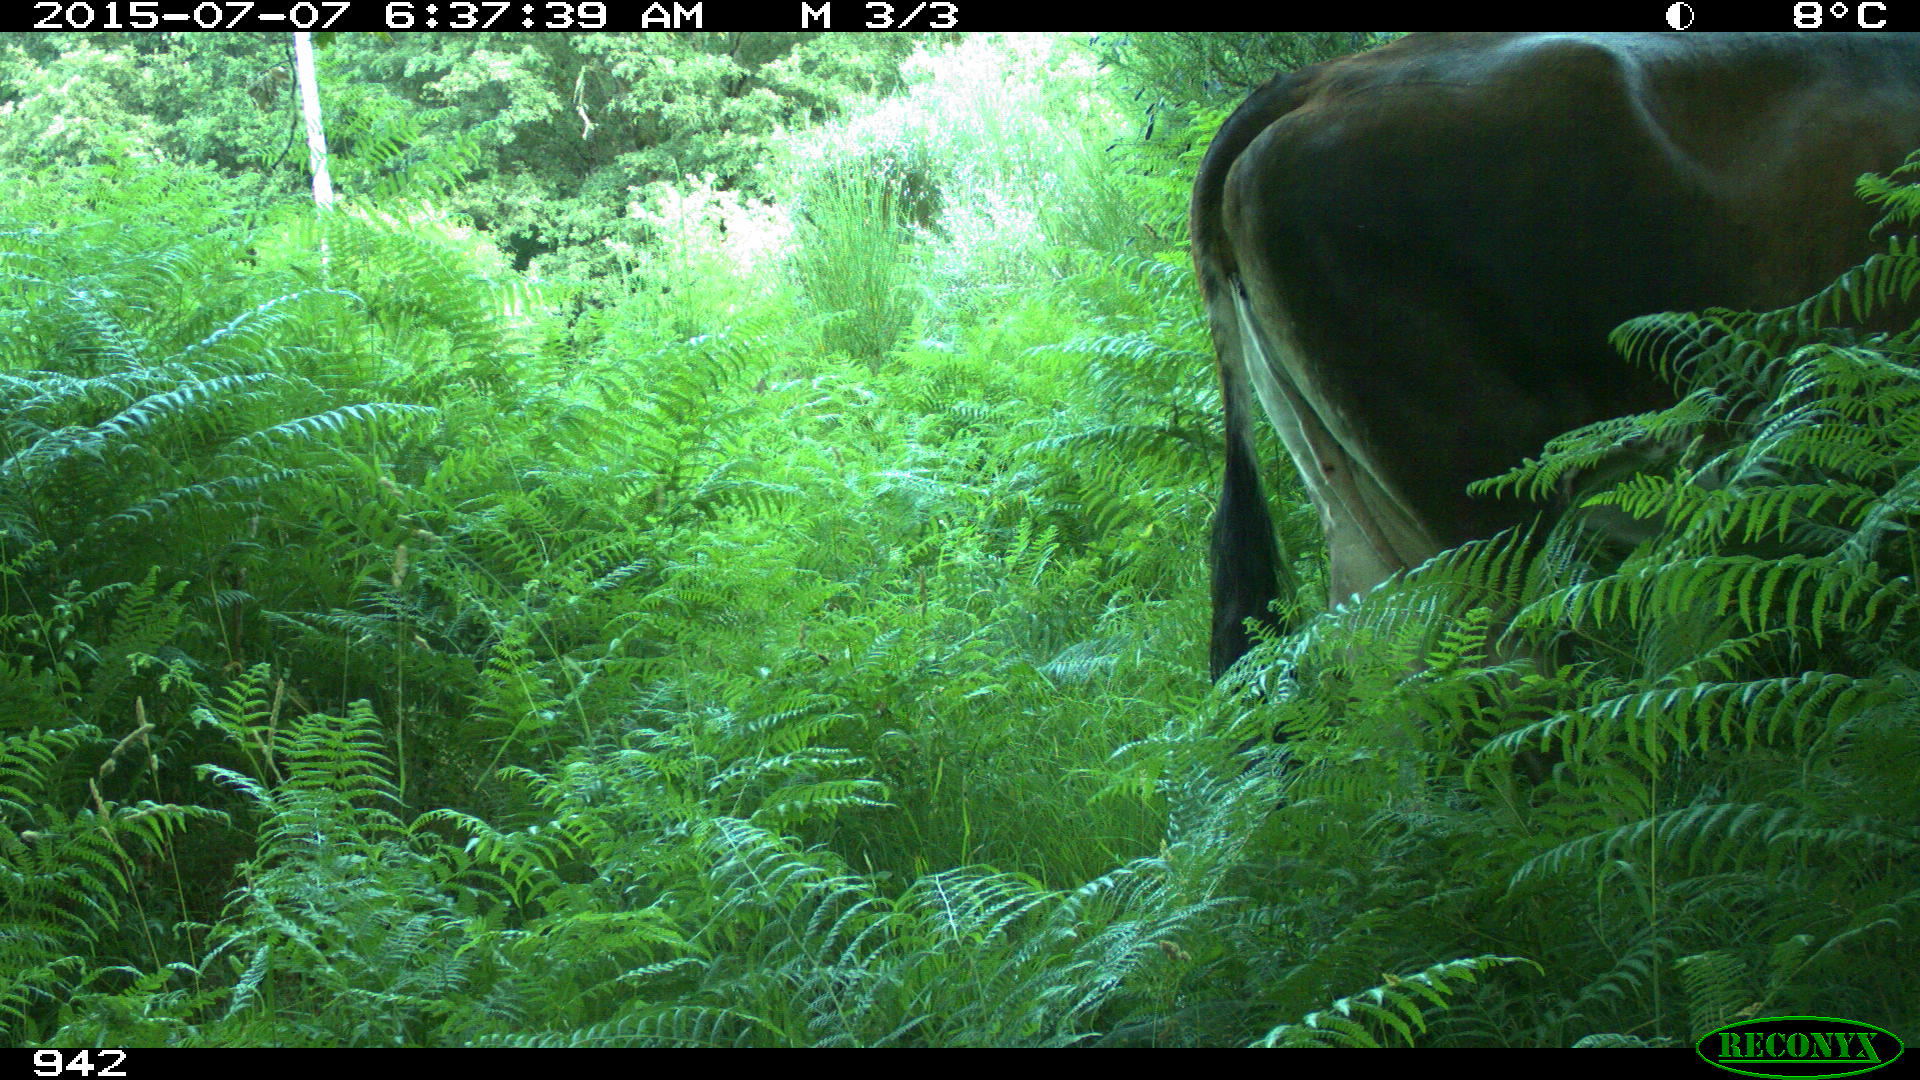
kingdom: Animalia
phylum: Chordata
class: Mammalia
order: Artiodactyla
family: Bovidae
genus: Bos
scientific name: Bos taurus
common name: Domesticated cattle
